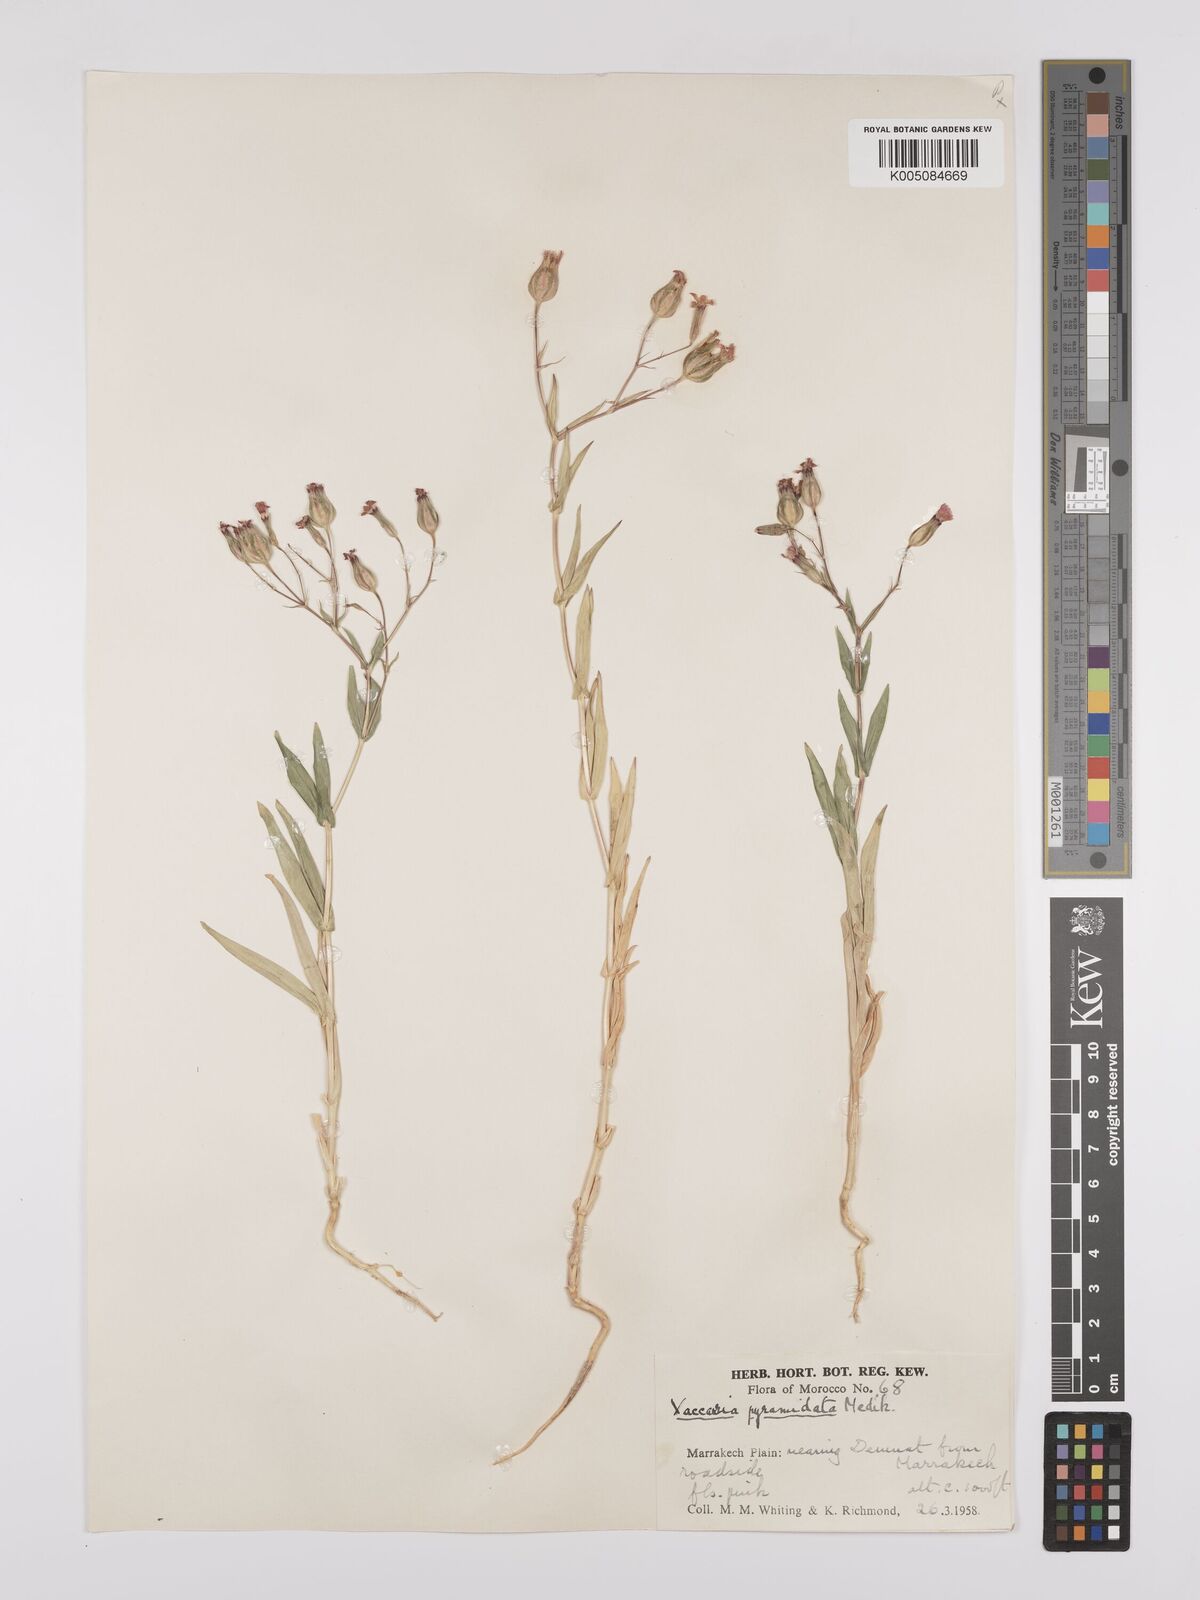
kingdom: Plantae
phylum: Tracheophyta
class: Magnoliopsida
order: Caryophyllales
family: Caryophyllaceae
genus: Gypsophila
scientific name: Gypsophila vaccaria
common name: Cow soapwort
